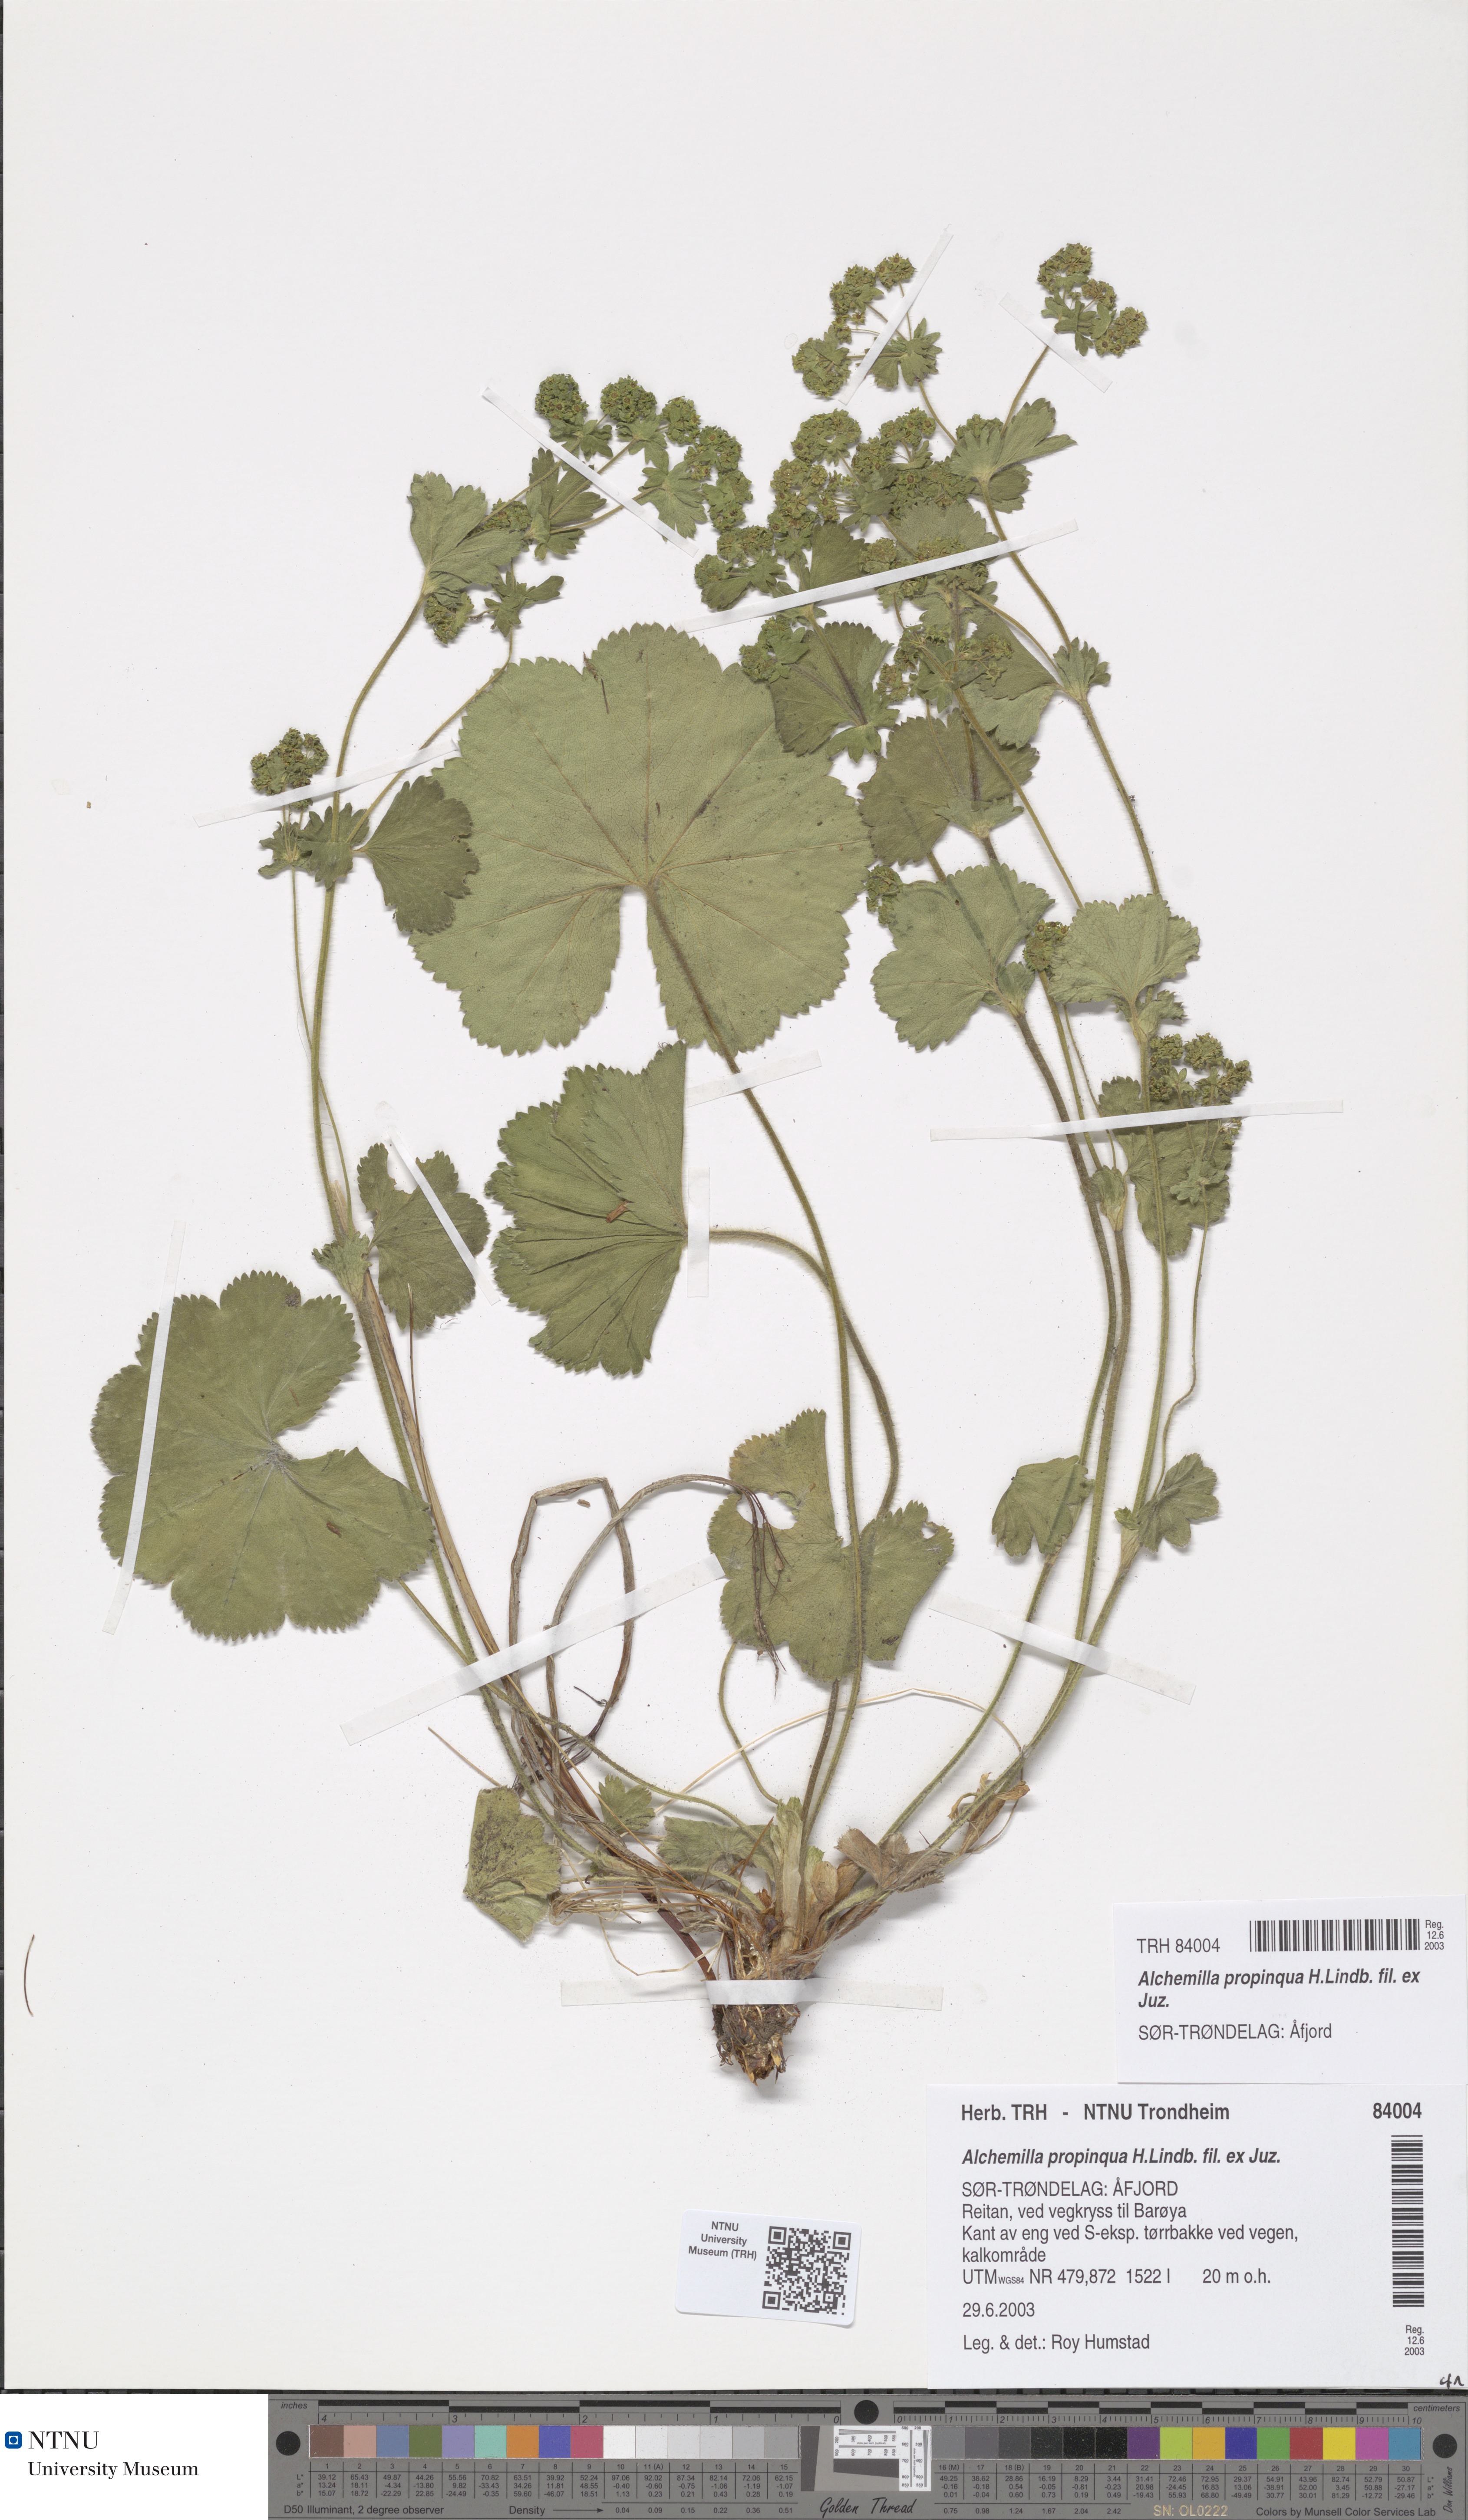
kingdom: Plantae
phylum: Tracheophyta
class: Magnoliopsida
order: Rosales
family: Rosaceae
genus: Alchemilla
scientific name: Alchemilla propinqua
